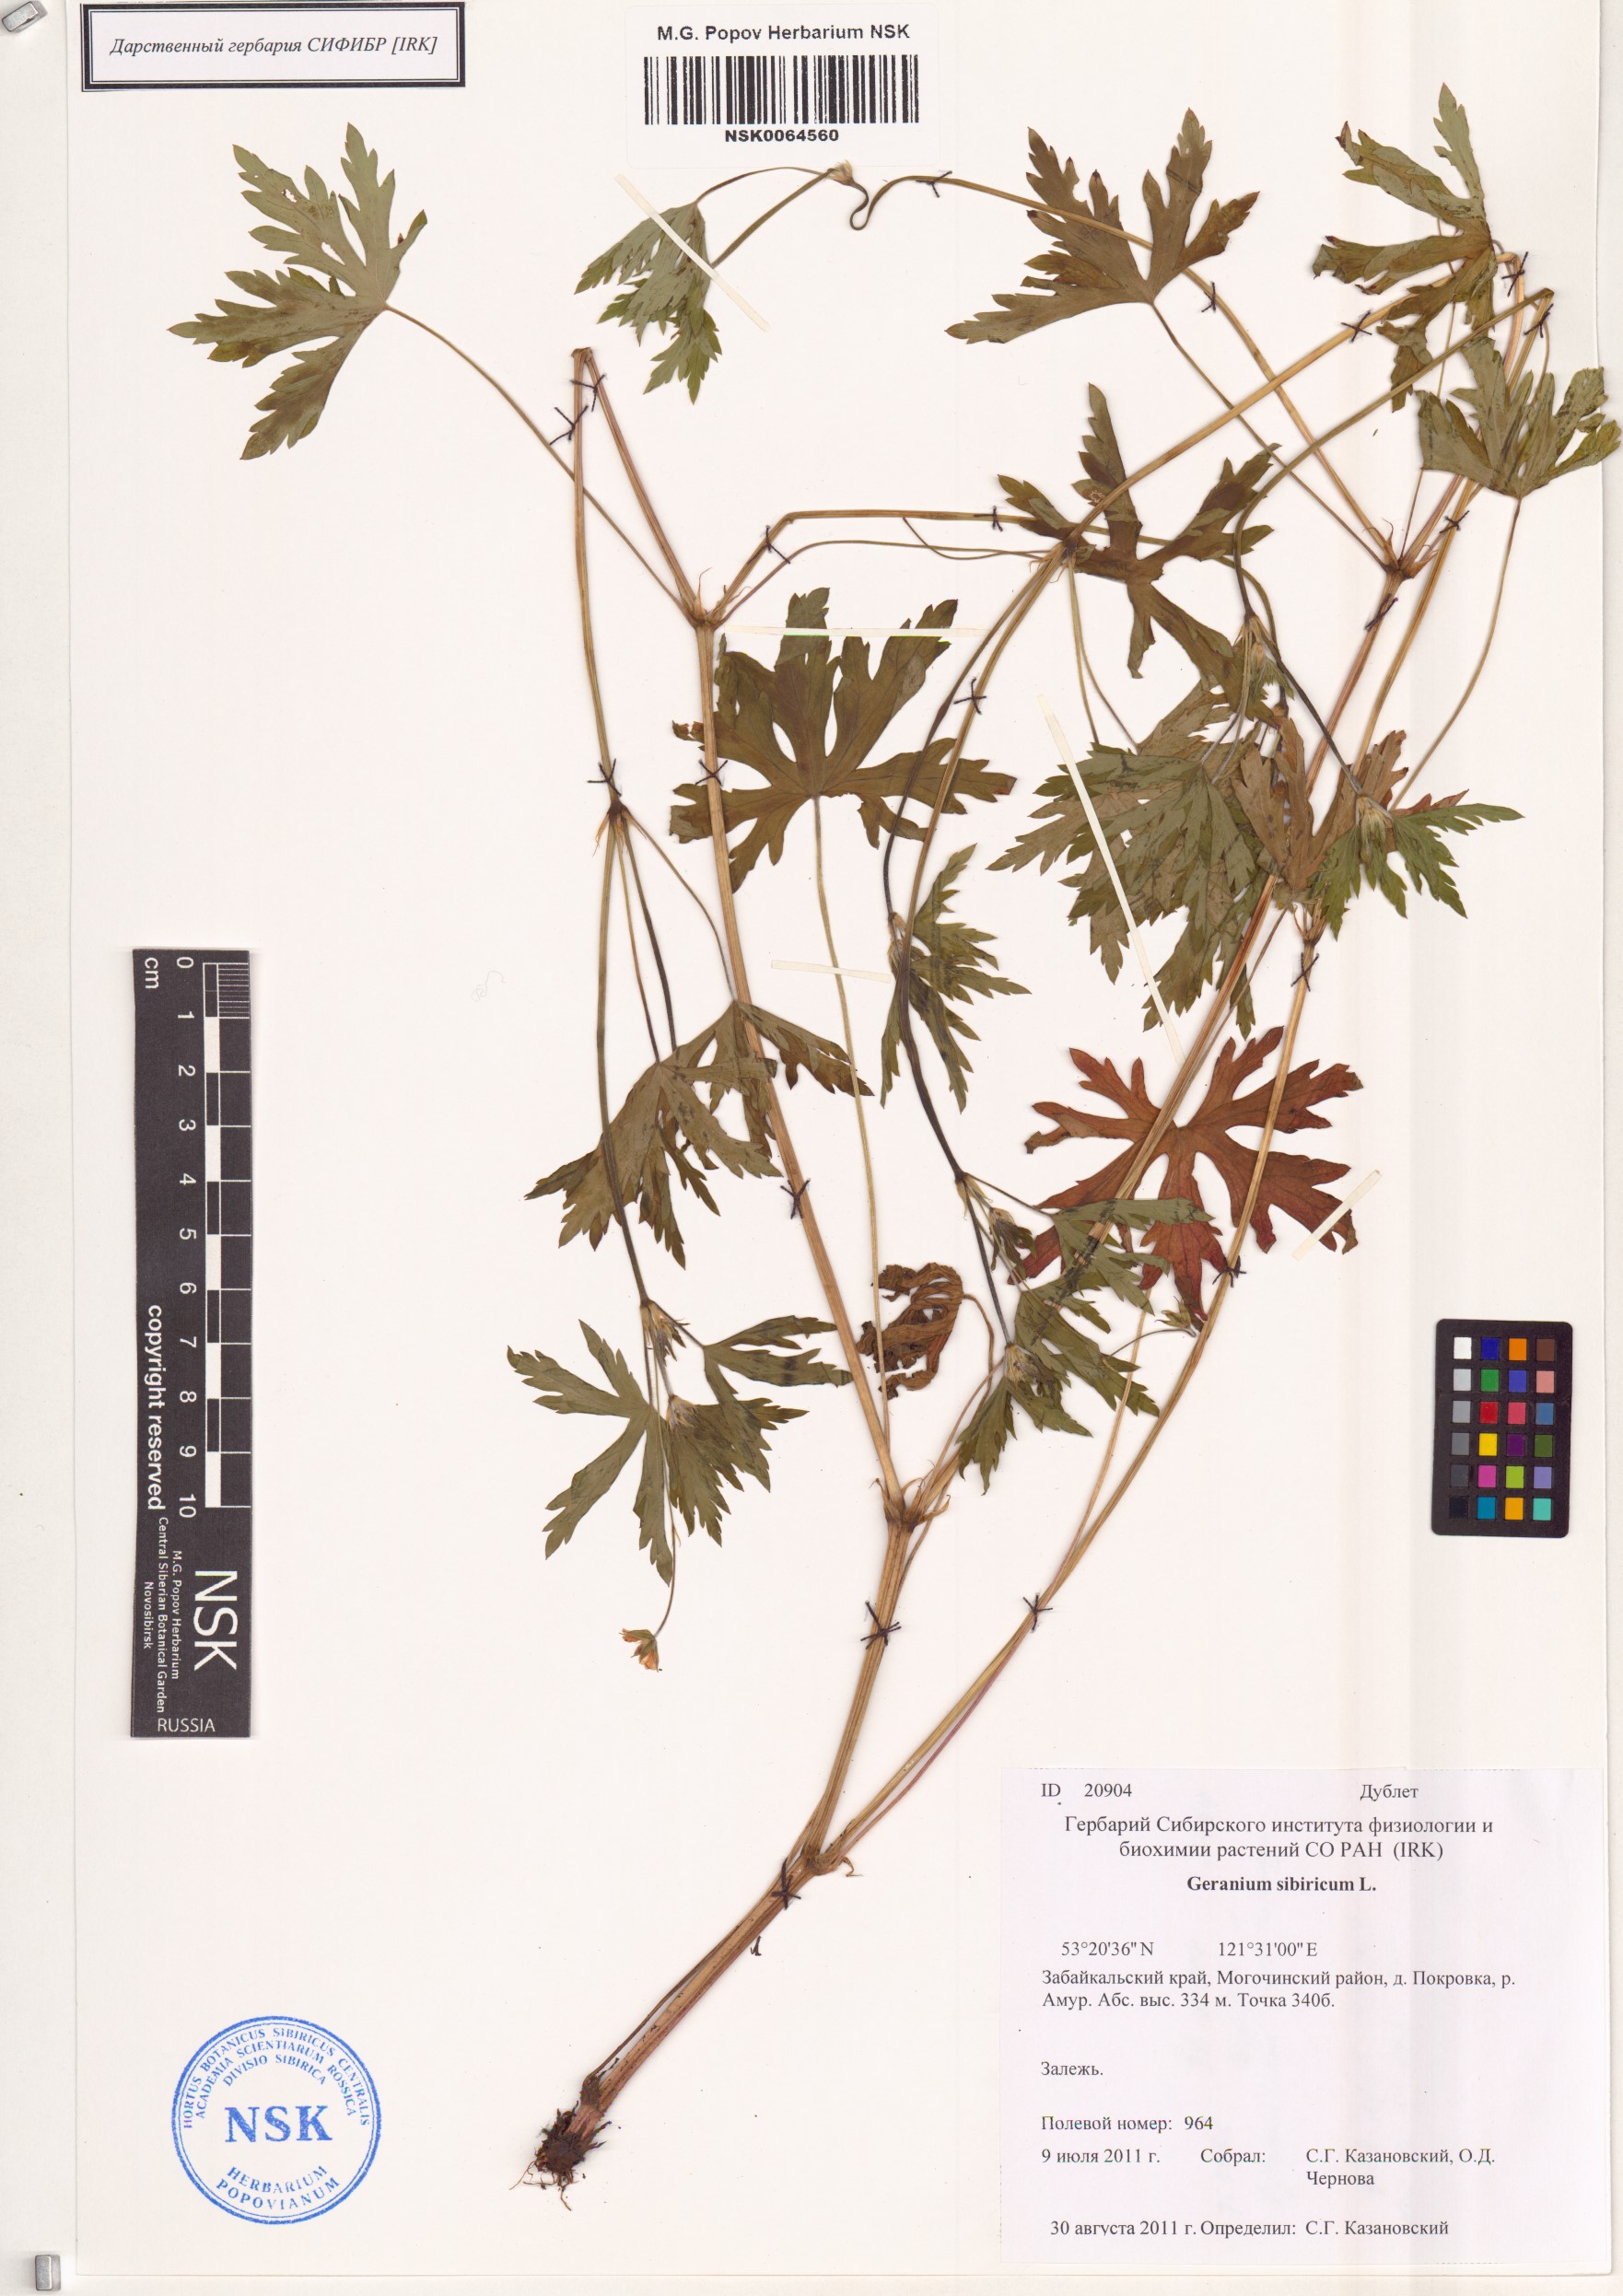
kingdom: Plantae
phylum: Tracheophyta
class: Magnoliopsida
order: Geraniales
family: Geraniaceae
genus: Geranium
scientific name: Geranium sibiricum
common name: Siberian crane's-bill
